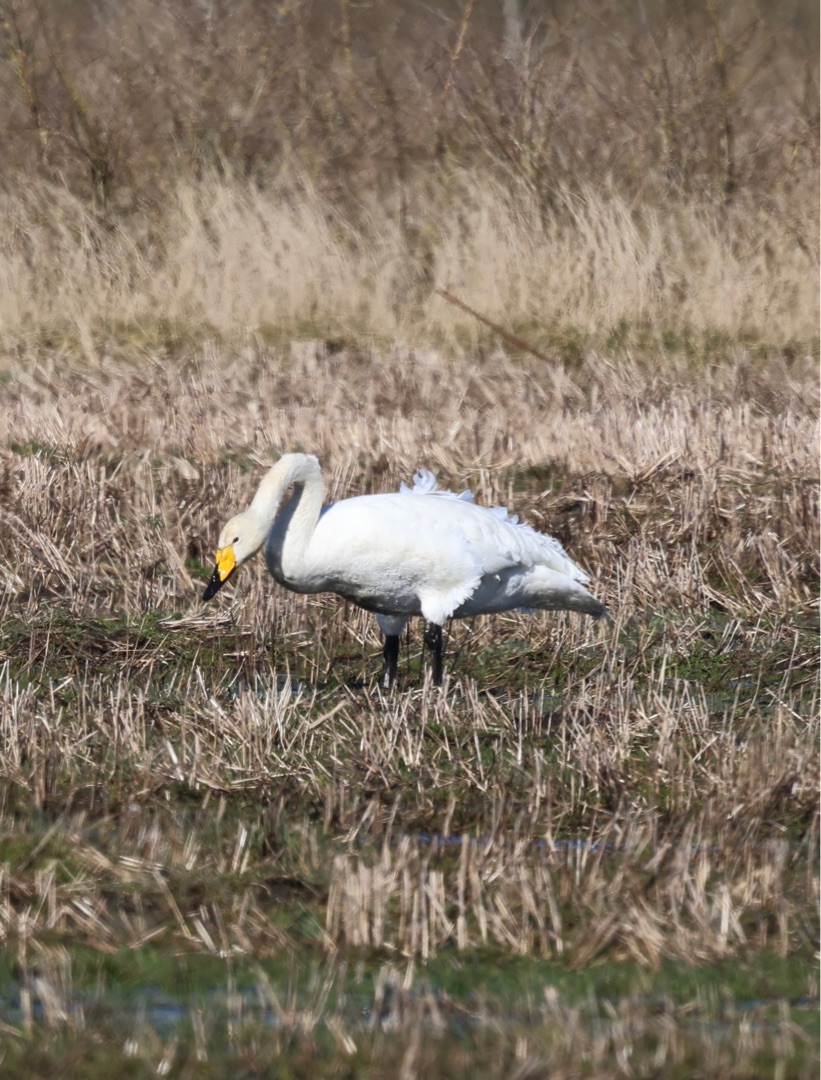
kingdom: Animalia
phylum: Chordata
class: Aves
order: Anseriformes
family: Anatidae
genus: Cygnus
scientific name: Cygnus cygnus
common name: Sangsvane
